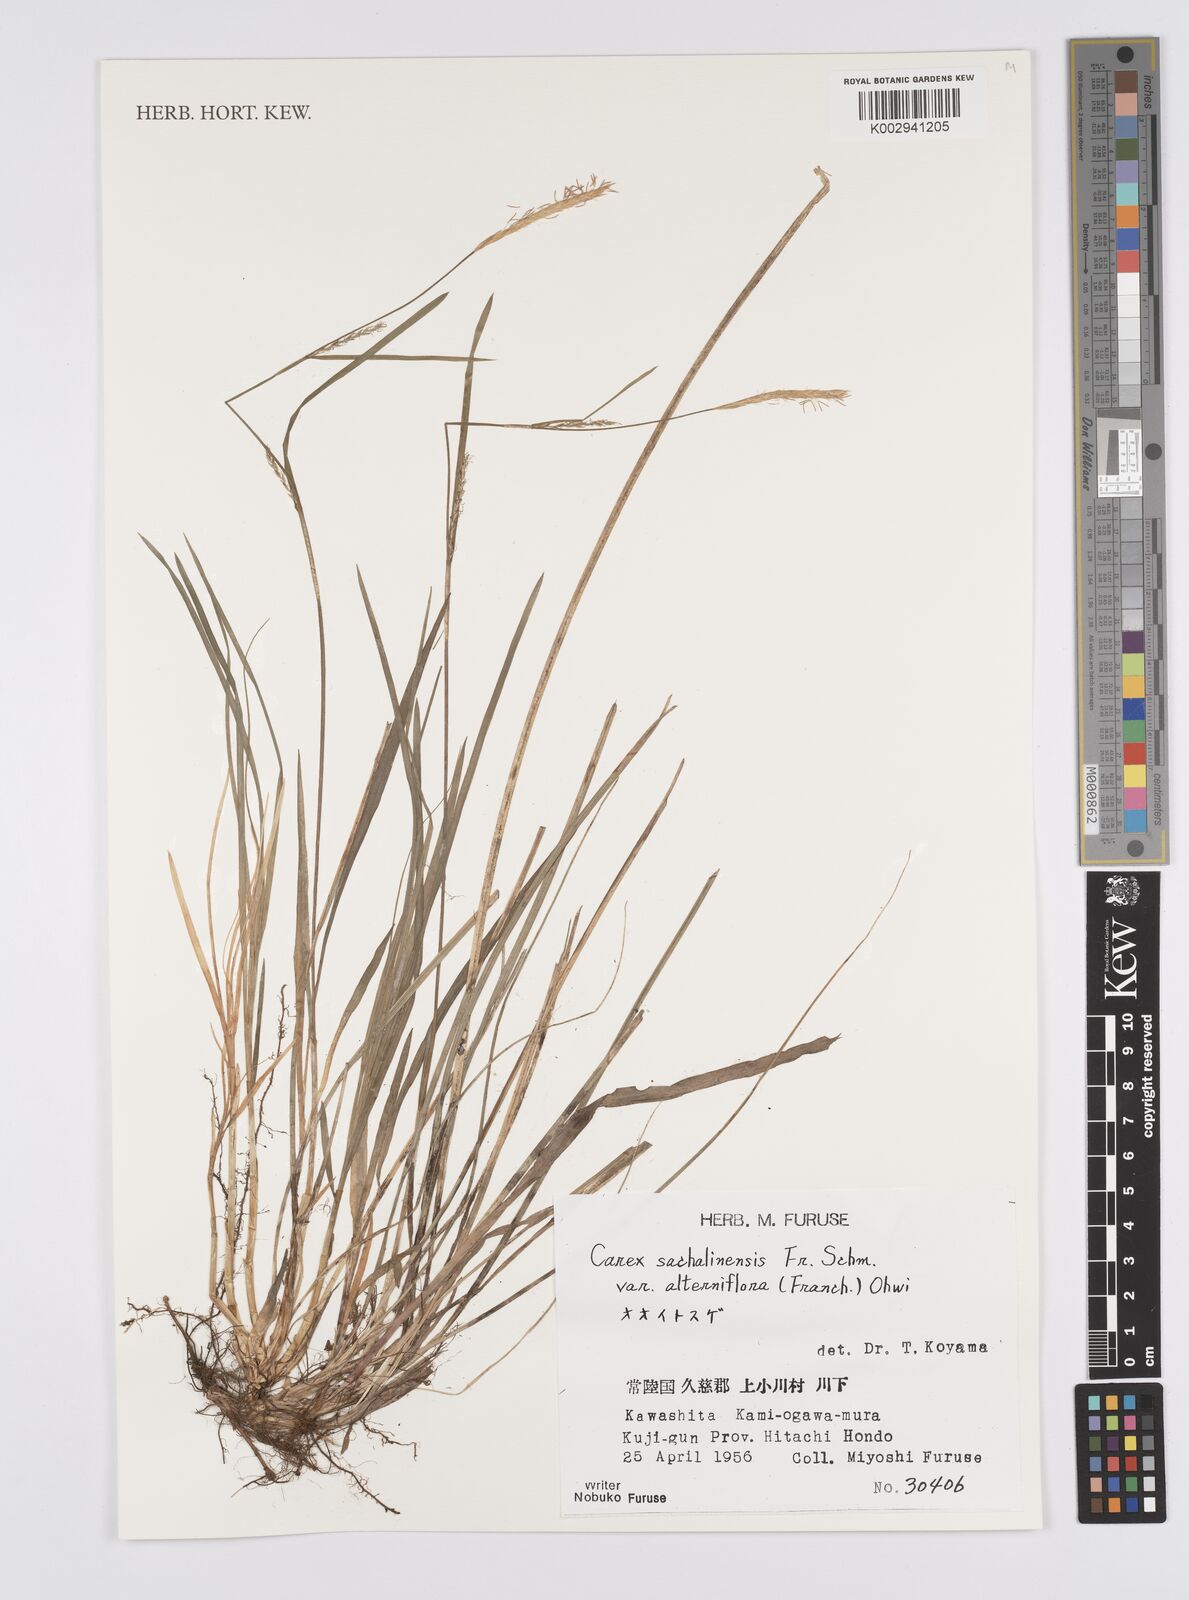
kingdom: Plantae
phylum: Tracheophyta
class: Liliopsida
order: Poales
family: Cyperaceae
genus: Carex
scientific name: Carex pisiformis
